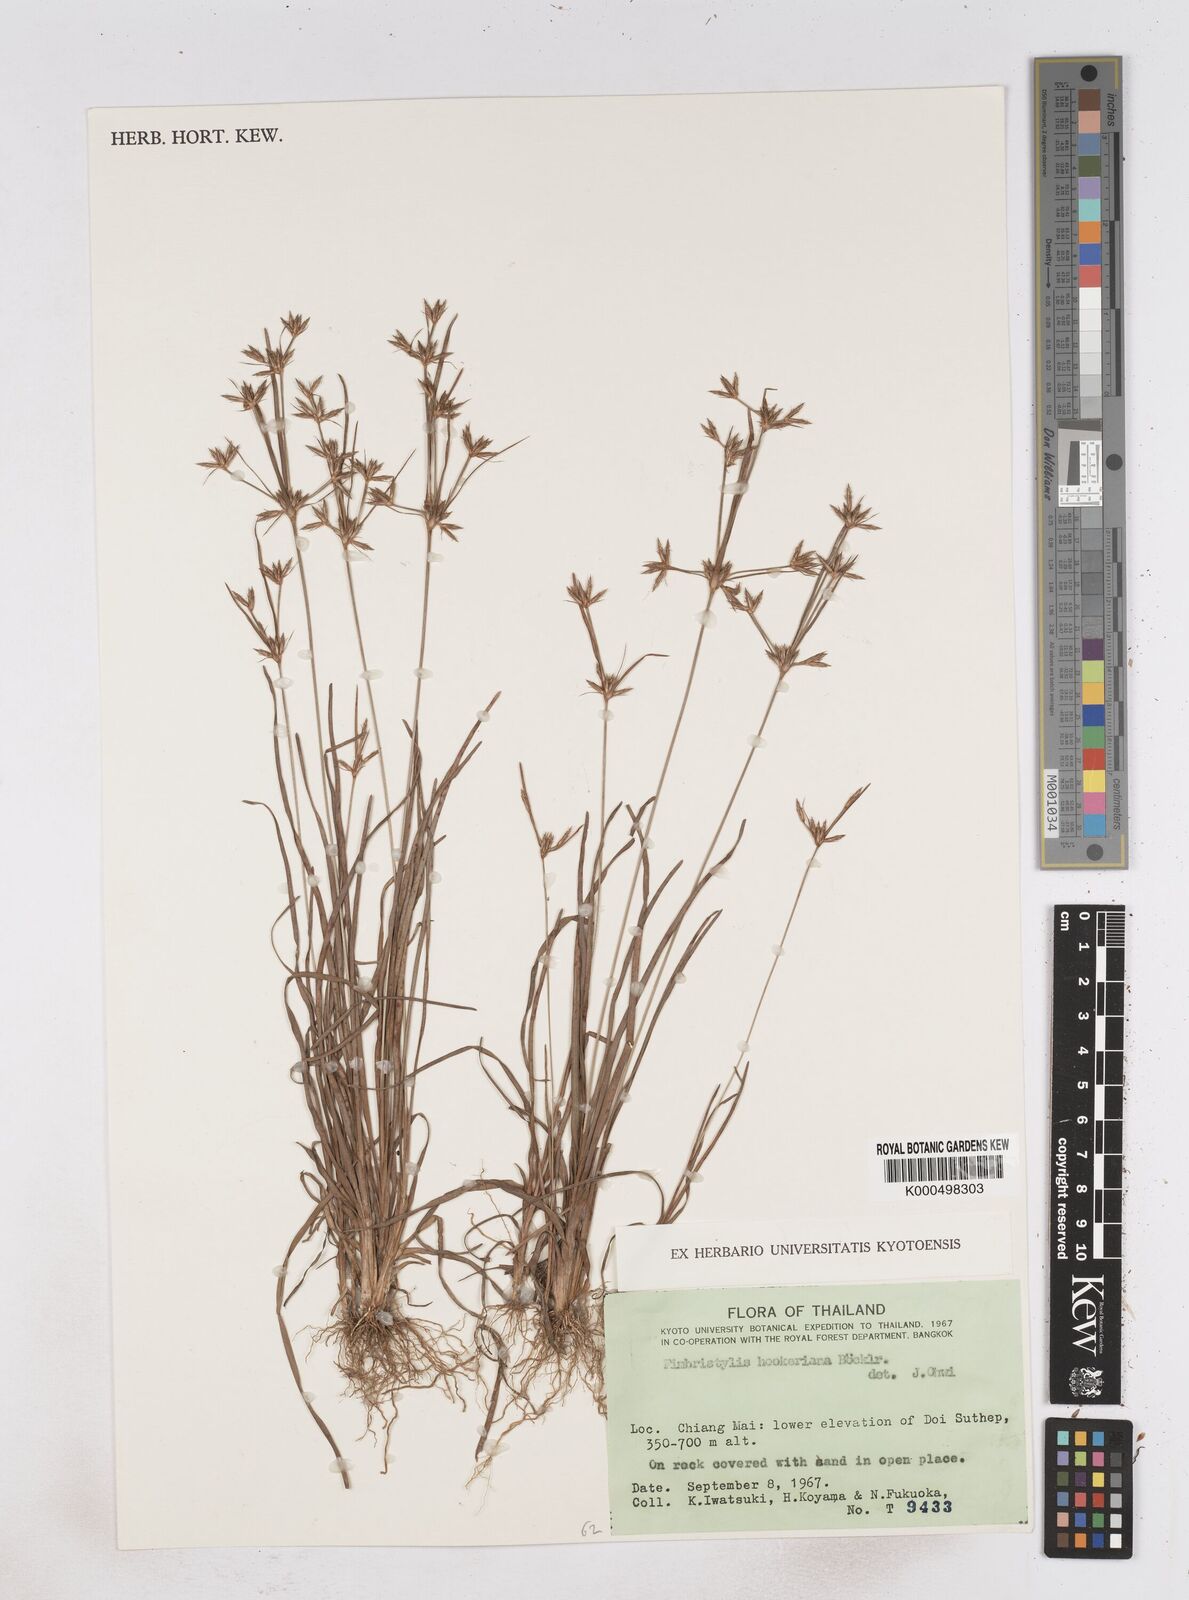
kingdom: Plantae
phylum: Tracheophyta
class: Liliopsida
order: Poales
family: Cyperaceae
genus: Fimbristylis
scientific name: Fimbristylis hookeriana
